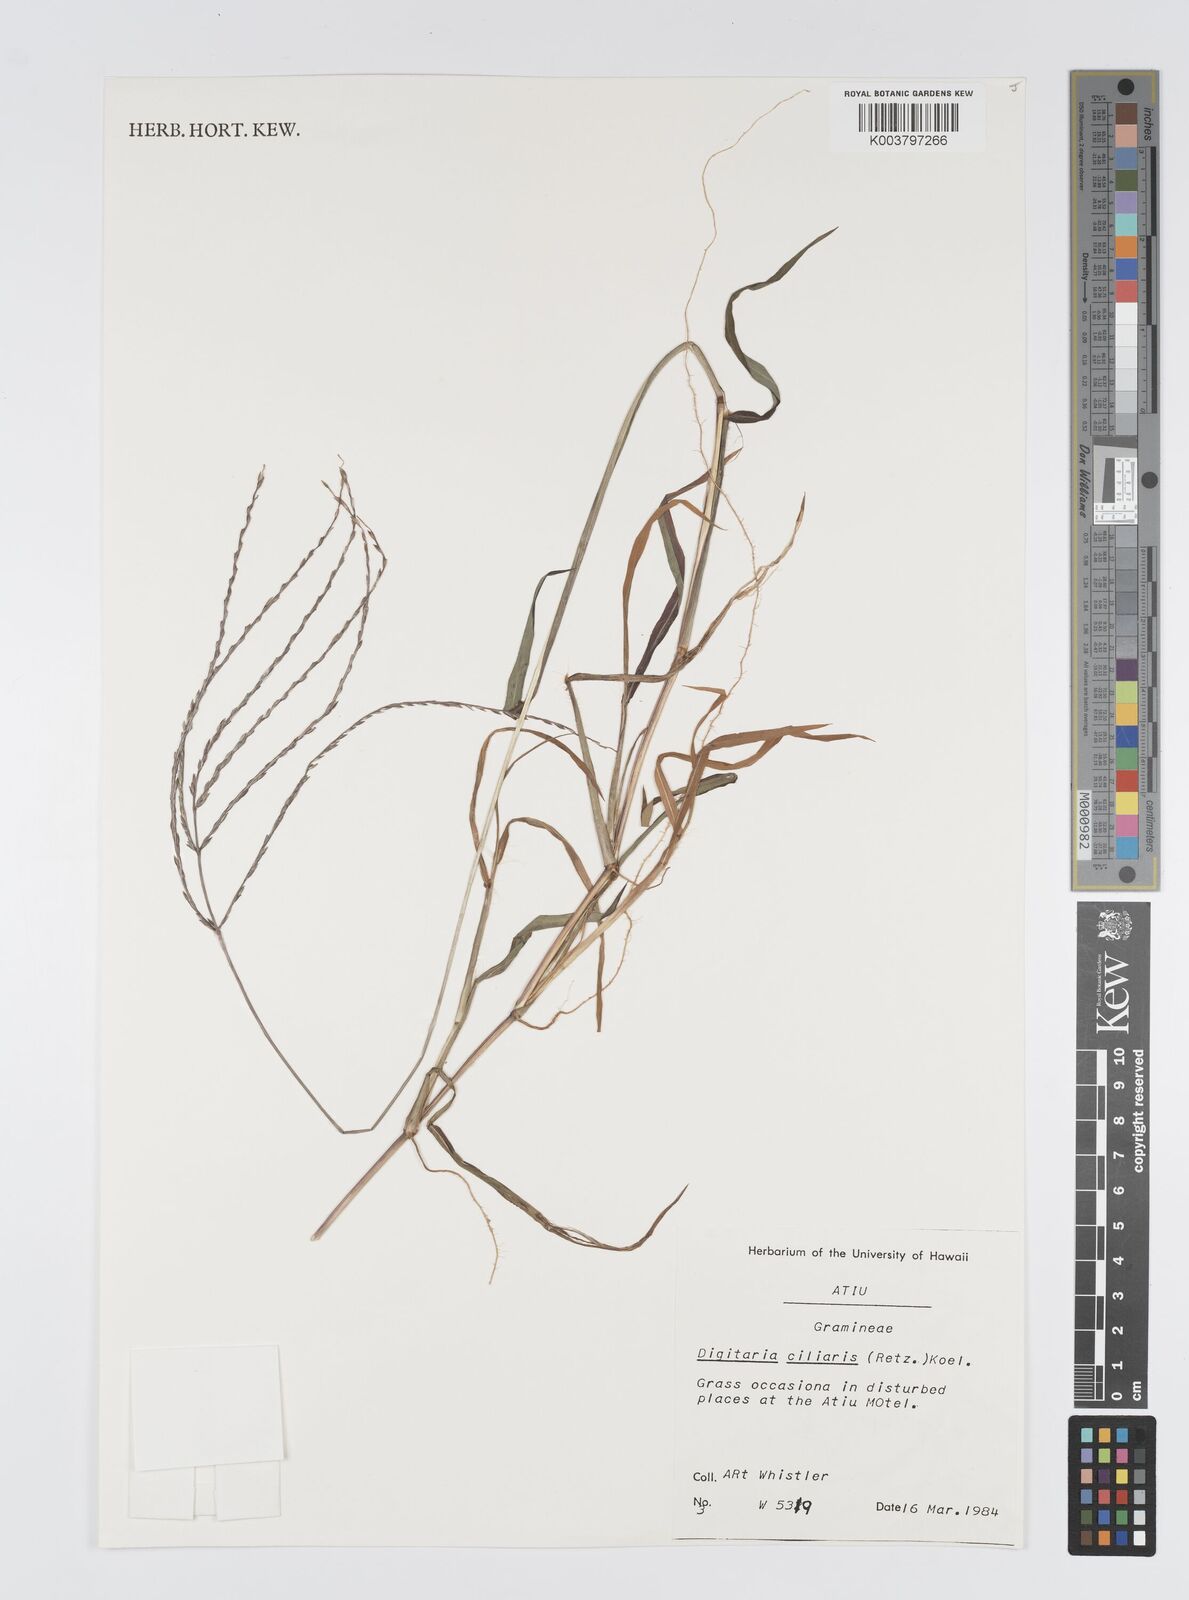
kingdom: Plantae
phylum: Tracheophyta
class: Liliopsida
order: Poales
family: Poaceae
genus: Digitaria
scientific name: Digitaria ciliaris
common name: Tropical finger-grass
